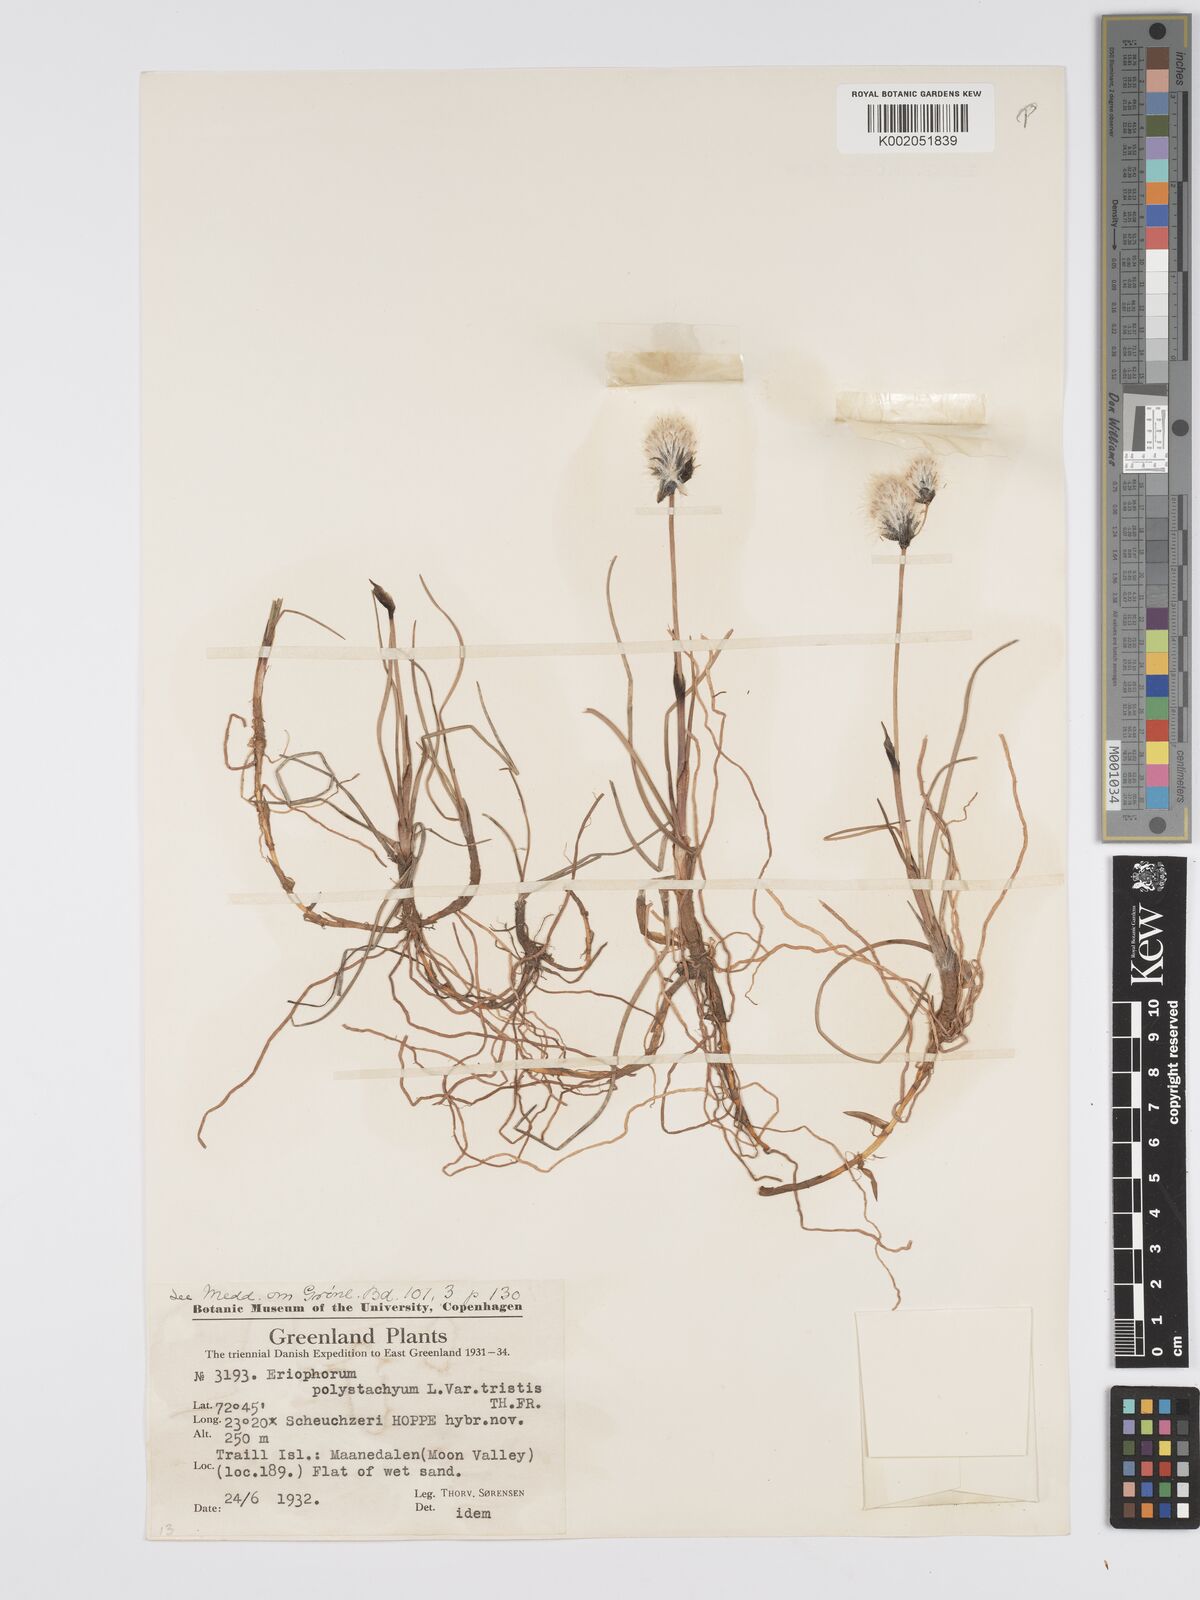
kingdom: Plantae
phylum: Tracheophyta
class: Liliopsida
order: Poales
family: Cyperaceae
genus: Eriophorum
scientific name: Eriophorum
